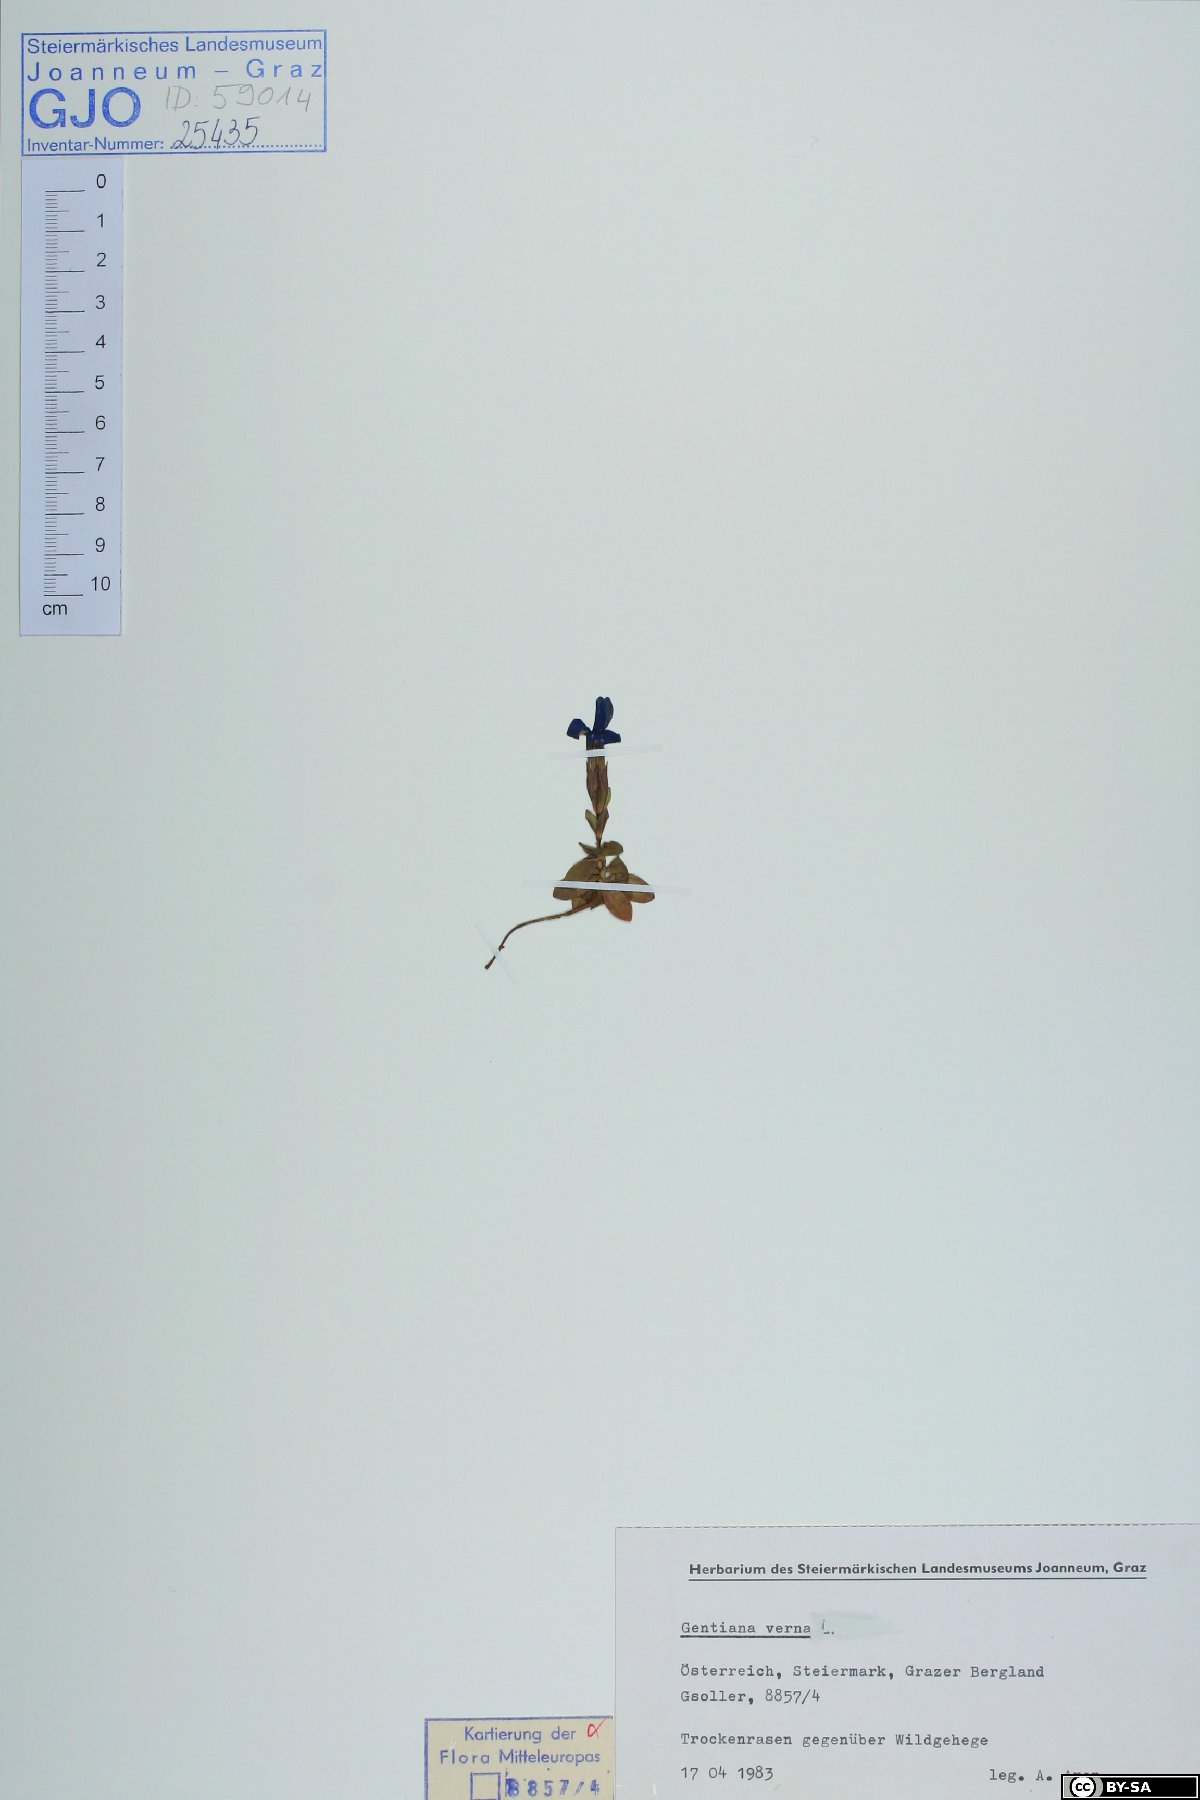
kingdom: Plantae
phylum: Tracheophyta
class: Magnoliopsida
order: Gentianales
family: Gentianaceae
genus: Gentiana
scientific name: Gentiana verna
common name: Spring gentian
